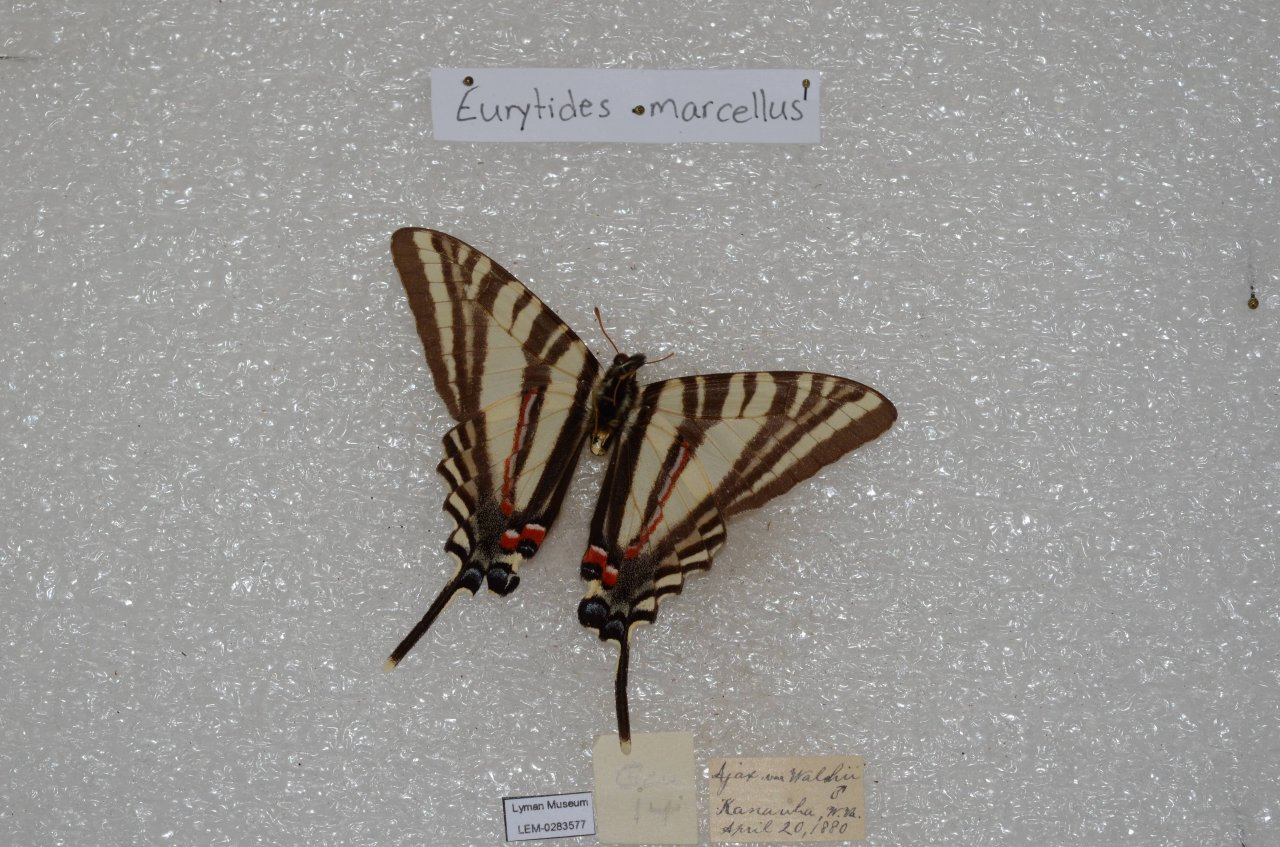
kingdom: Animalia
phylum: Arthropoda
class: Insecta
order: Lepidoptera
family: Papilionidae
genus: Protographium
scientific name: Protographium marcellus
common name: Zebra Swallowtail
